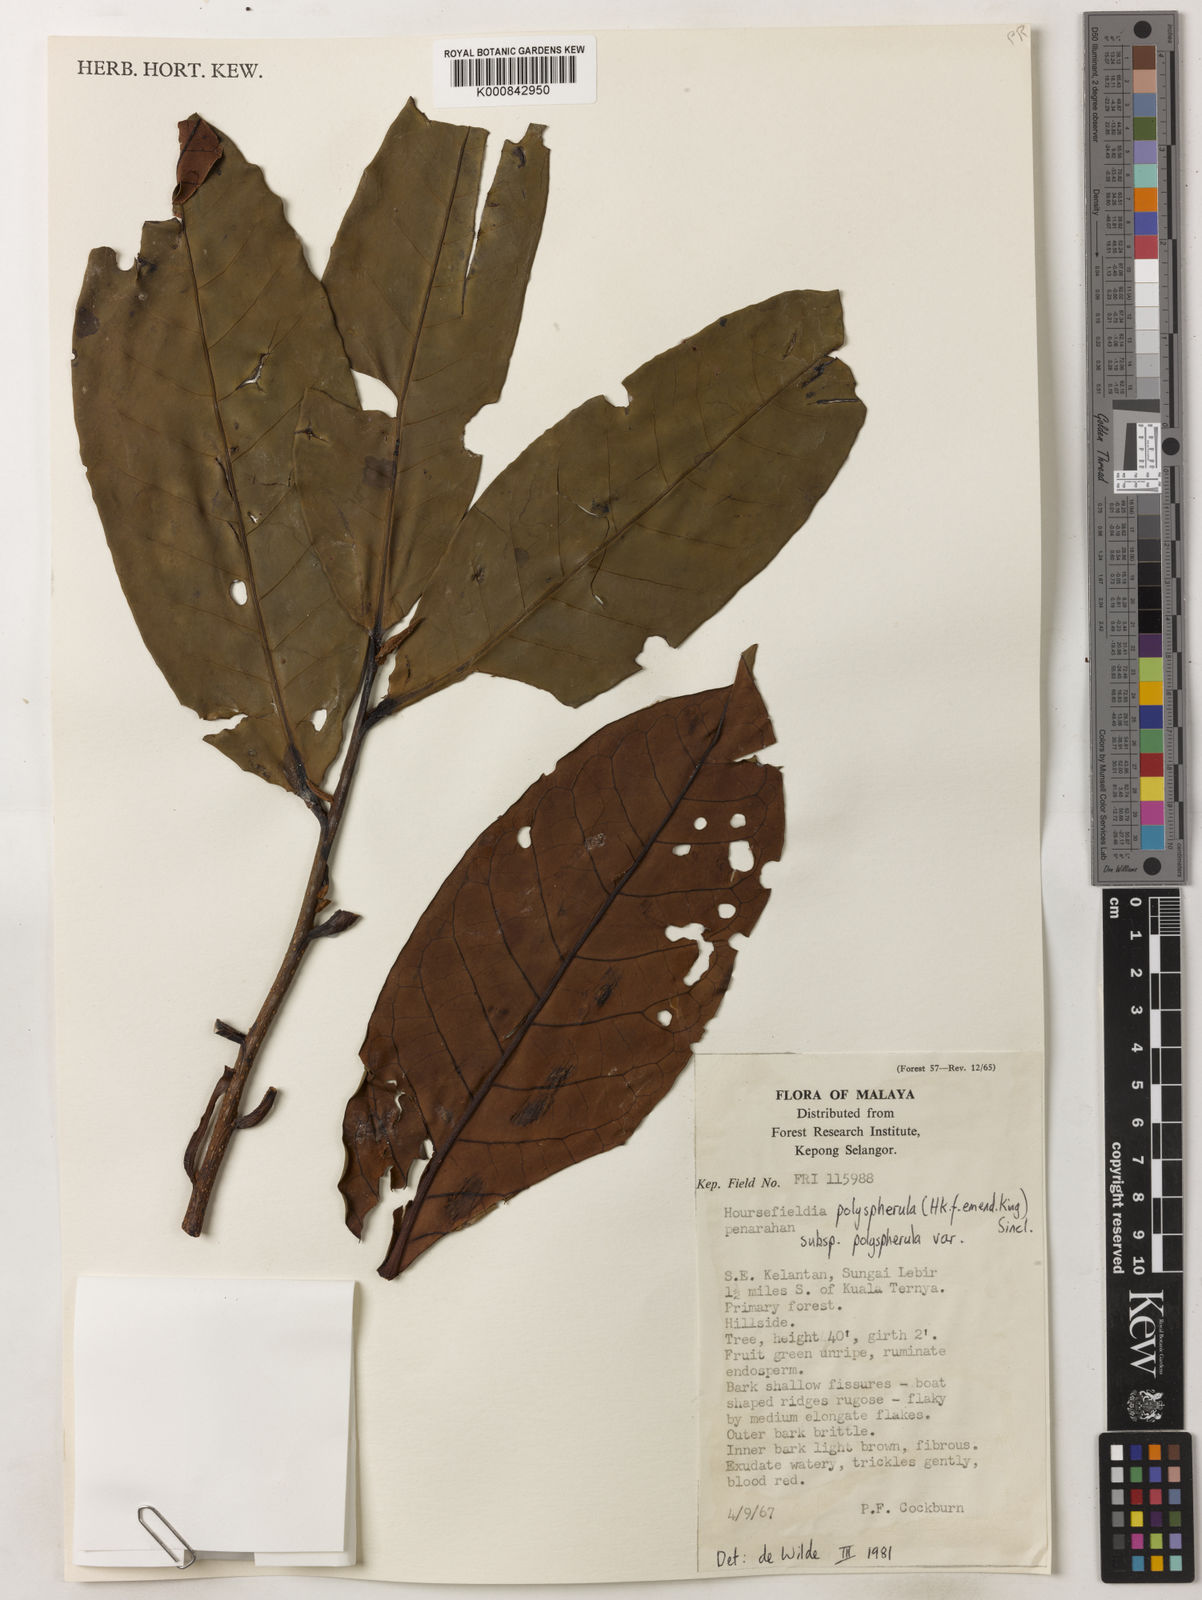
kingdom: Plantae
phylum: Tracheophyta
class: Magnoliopsida
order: Magnoliales
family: Myristicaceae
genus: Horsfieldia
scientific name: Horsfieldia
